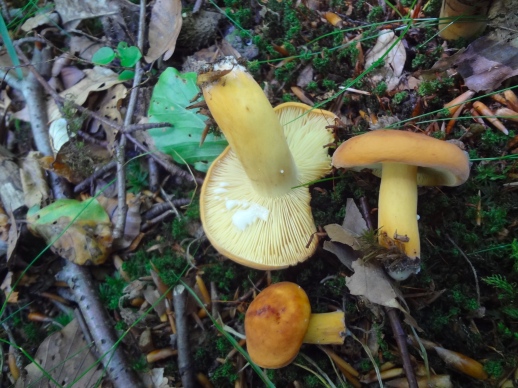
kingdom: Fungi
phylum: Basidiomycota
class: Agaricomycetes
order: Russulales
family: Russulaceae
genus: Lactifluus
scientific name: Lactifluus volemus
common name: spiselig mælkehat
